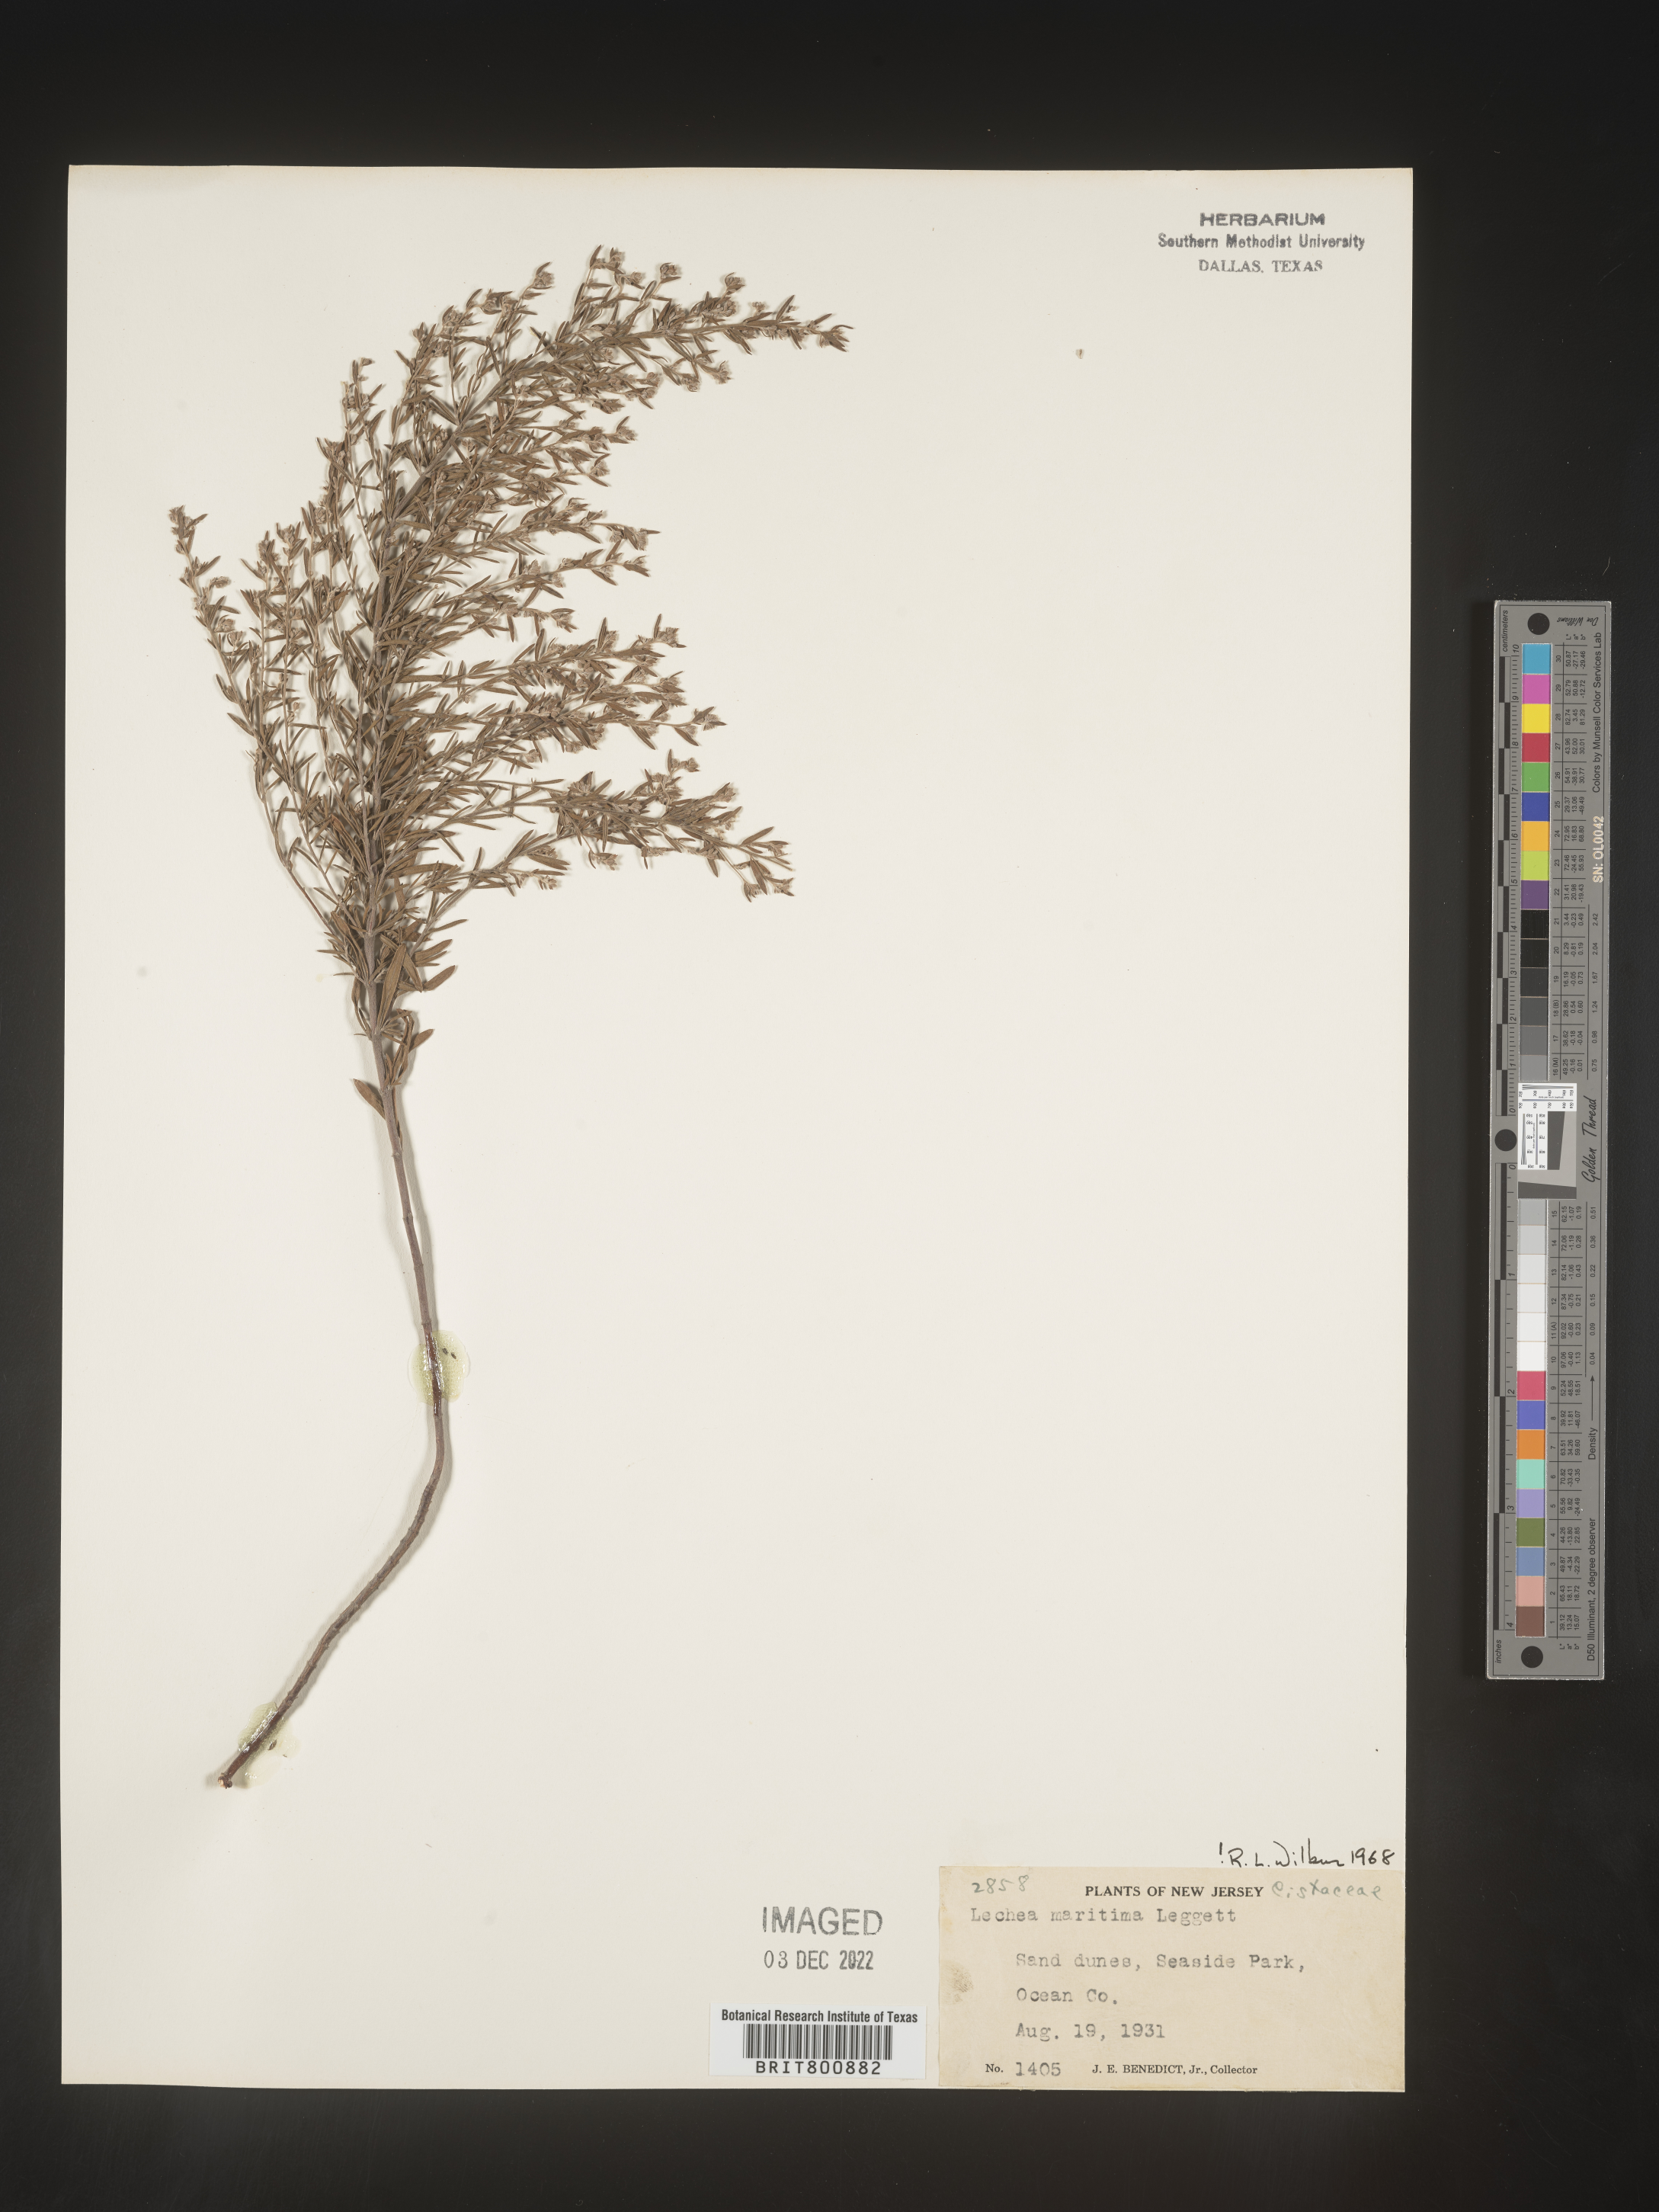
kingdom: Plantae
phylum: Tracheophyta
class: Magnoliopsida
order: Malvales
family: Cistaceae
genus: Lechea
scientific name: Lechea maritima
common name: Beach pinweed
